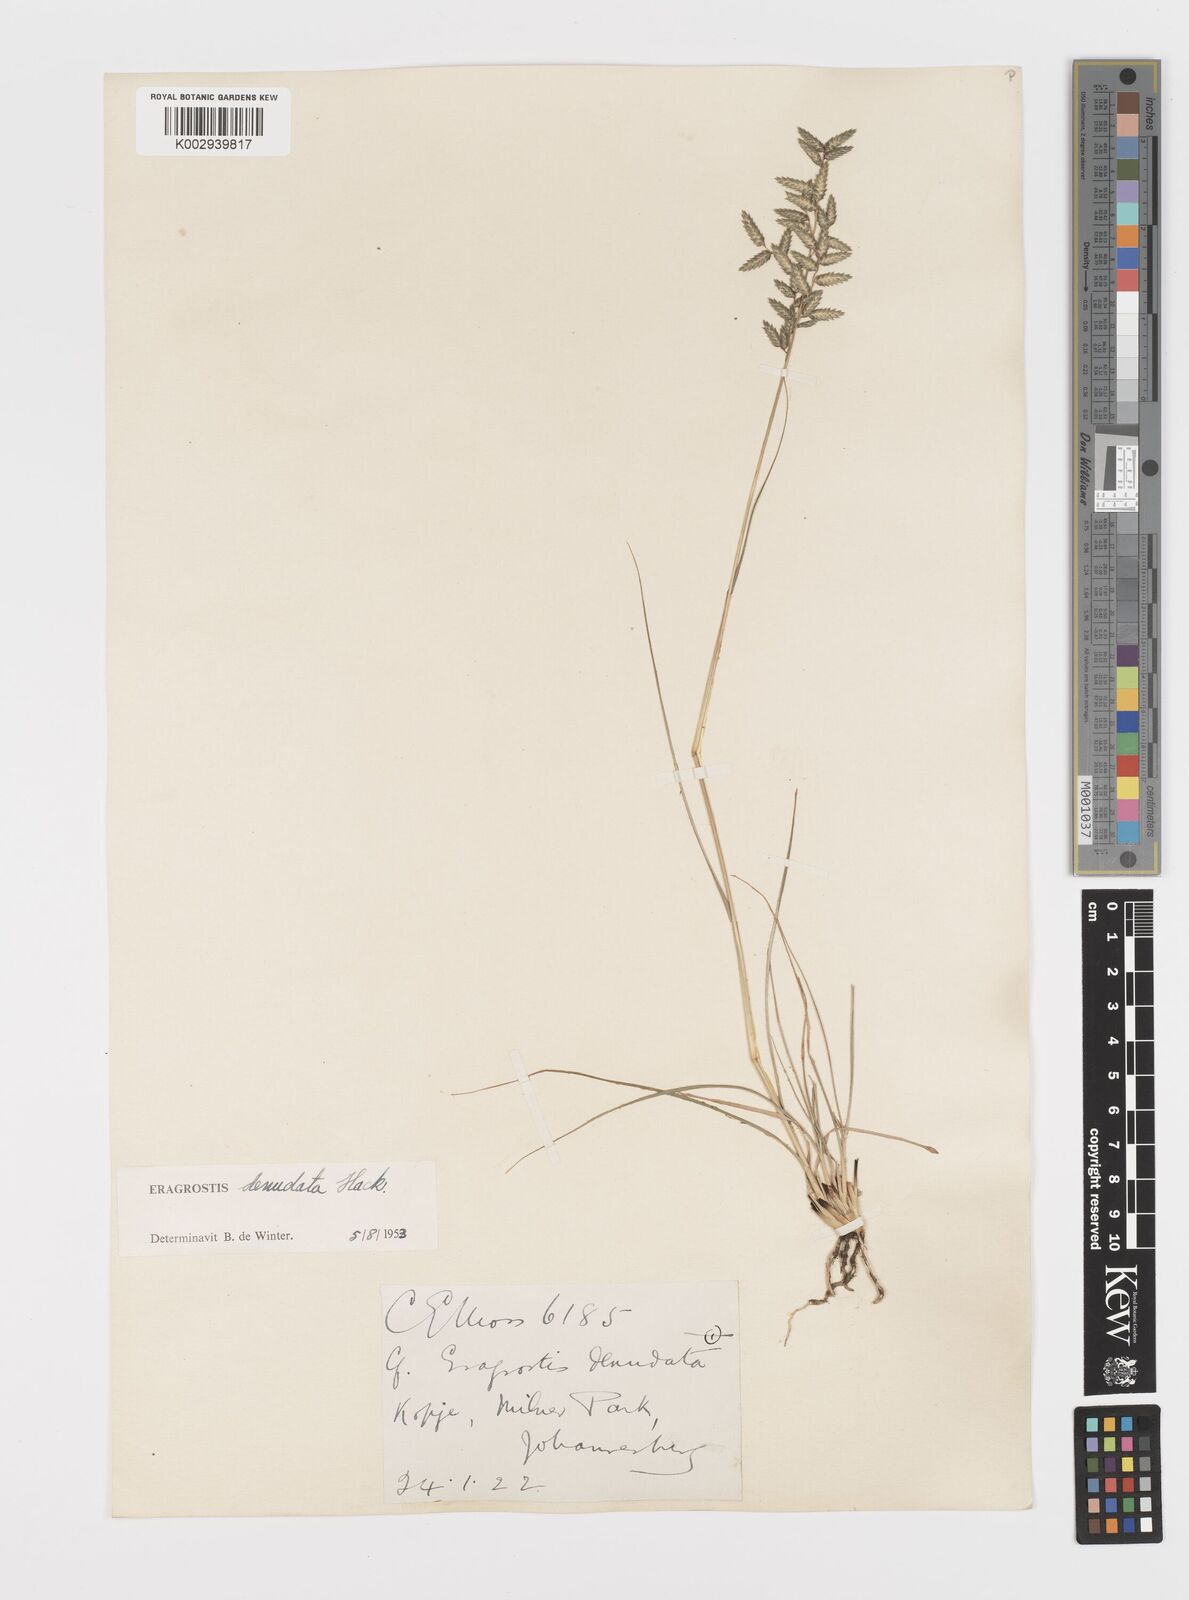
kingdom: Plantae
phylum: Tracheophyta
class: Liliopsida
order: Poales
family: Poaceae
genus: Eragrostis
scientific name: Eragrostis nindensis
